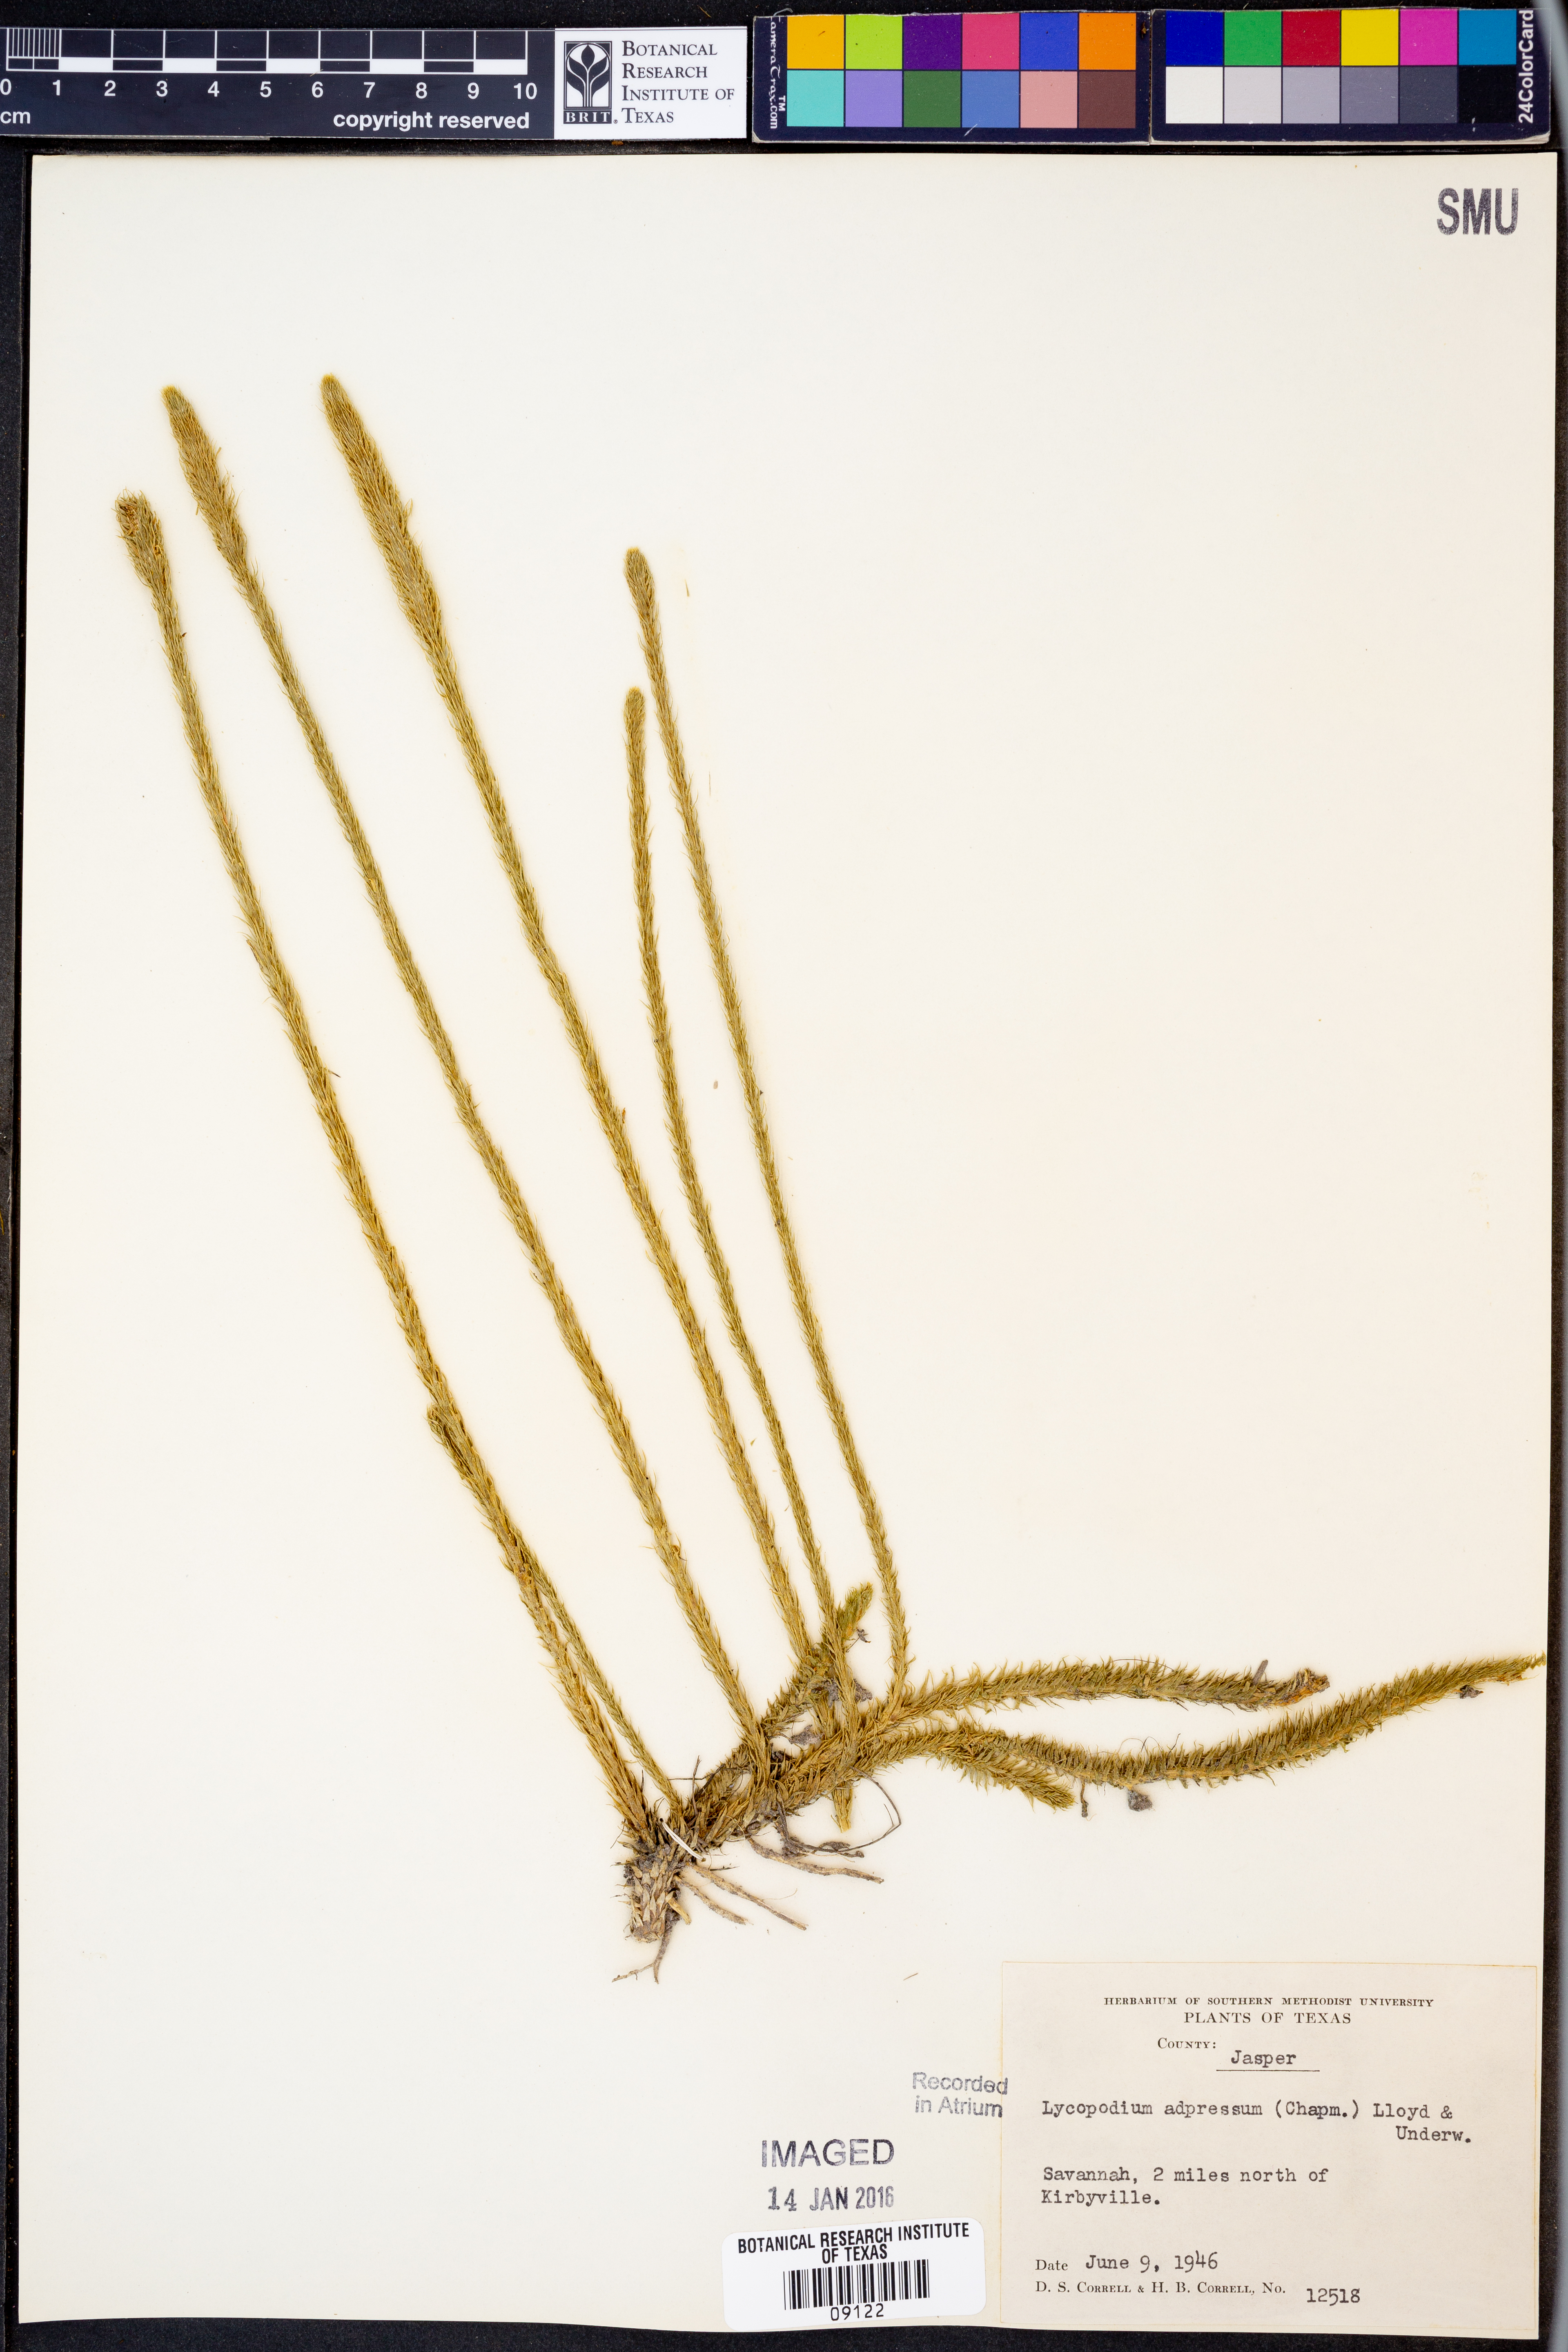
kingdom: Plantae
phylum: Tracheophyta
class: Lycopodiopsida
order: Lycopodiales
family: Lycopodiaceae
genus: Lycopodiella
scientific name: Lycopodiella appressa
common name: Appressed bog clubmoss
